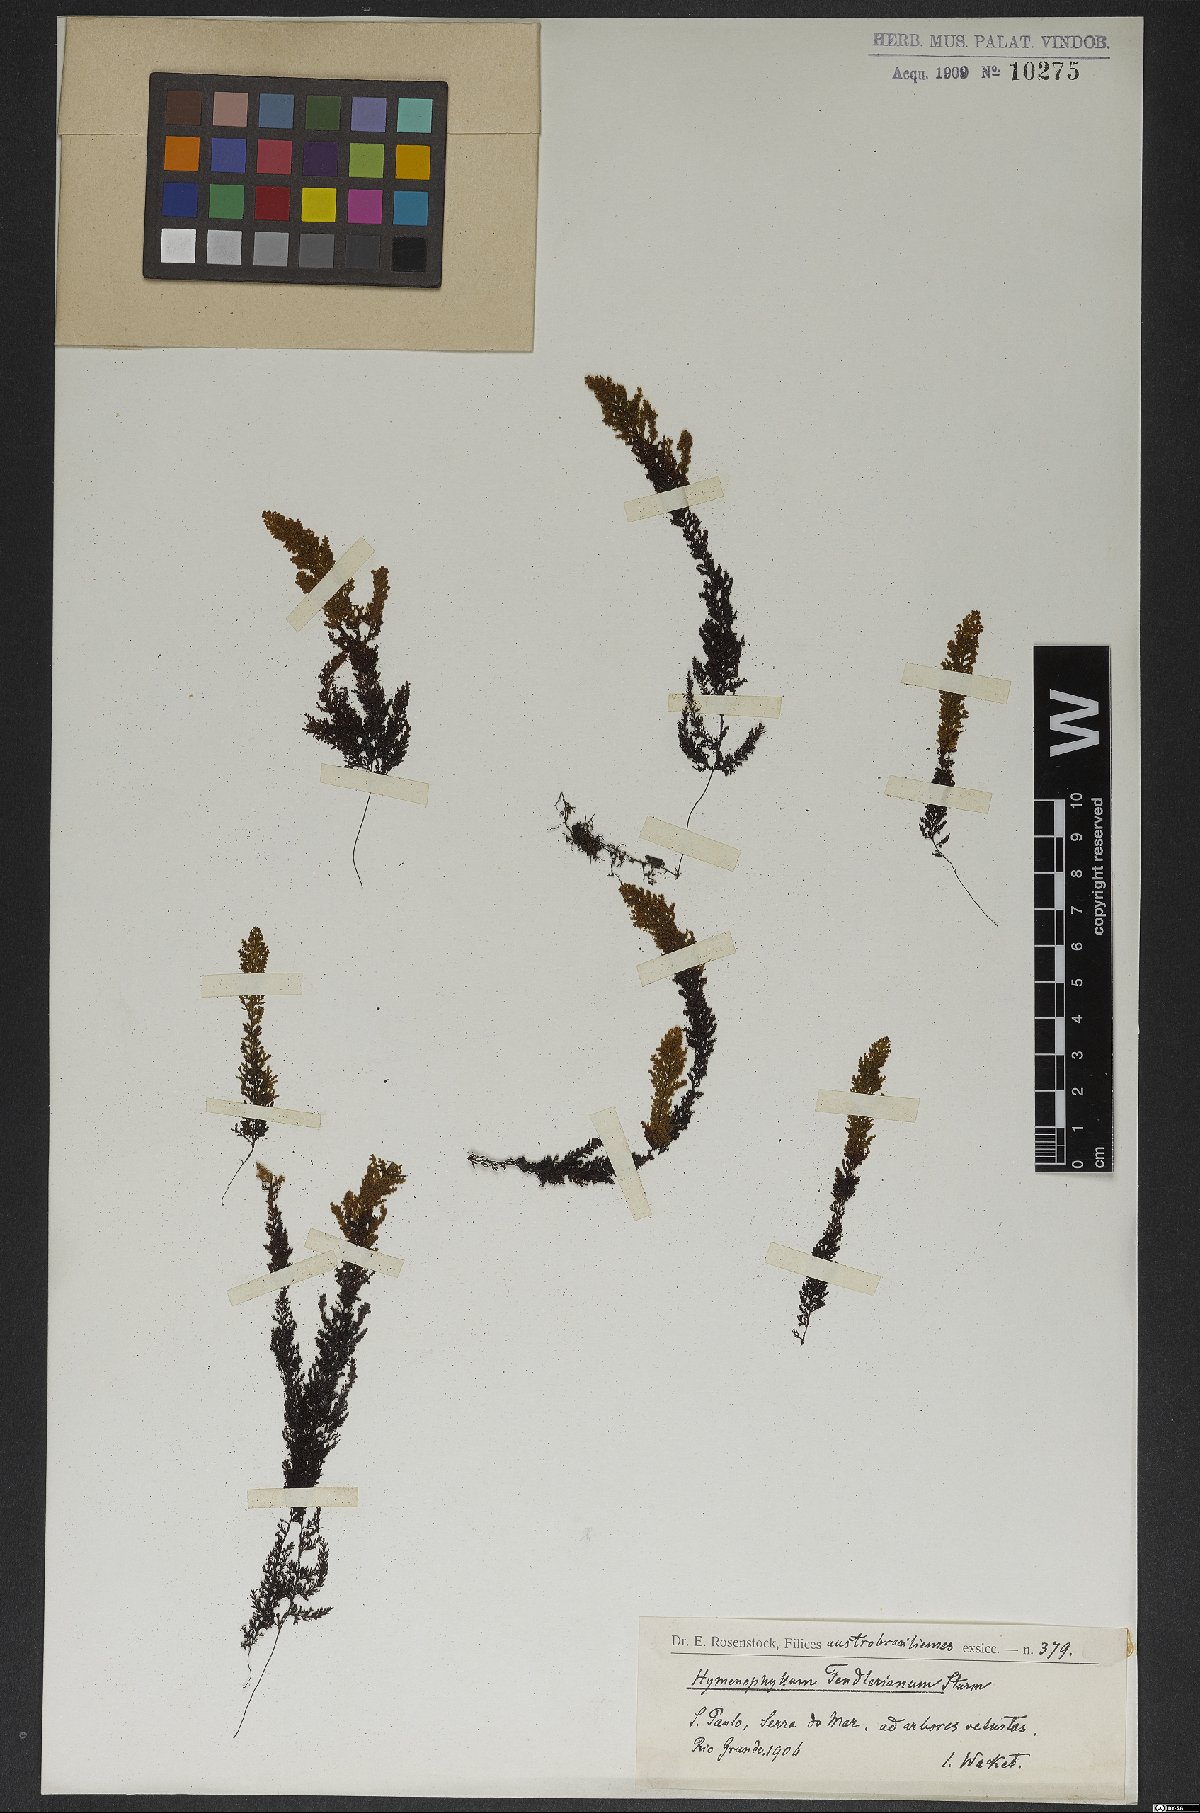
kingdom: Plantae
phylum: Tracheophyta
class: Polypodiopsida
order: Hymenophyllales
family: Hymenophyllaceae
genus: Hymenophyllum
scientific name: Hymenophyllum asplenioides
